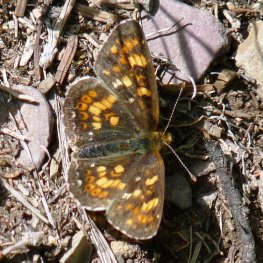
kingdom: Animalia
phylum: Arthropoda
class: Insecta
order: Lepidoptera
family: Nymphalidae
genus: Phyciodes
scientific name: Phyciodes tharos
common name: Northern Crescent
